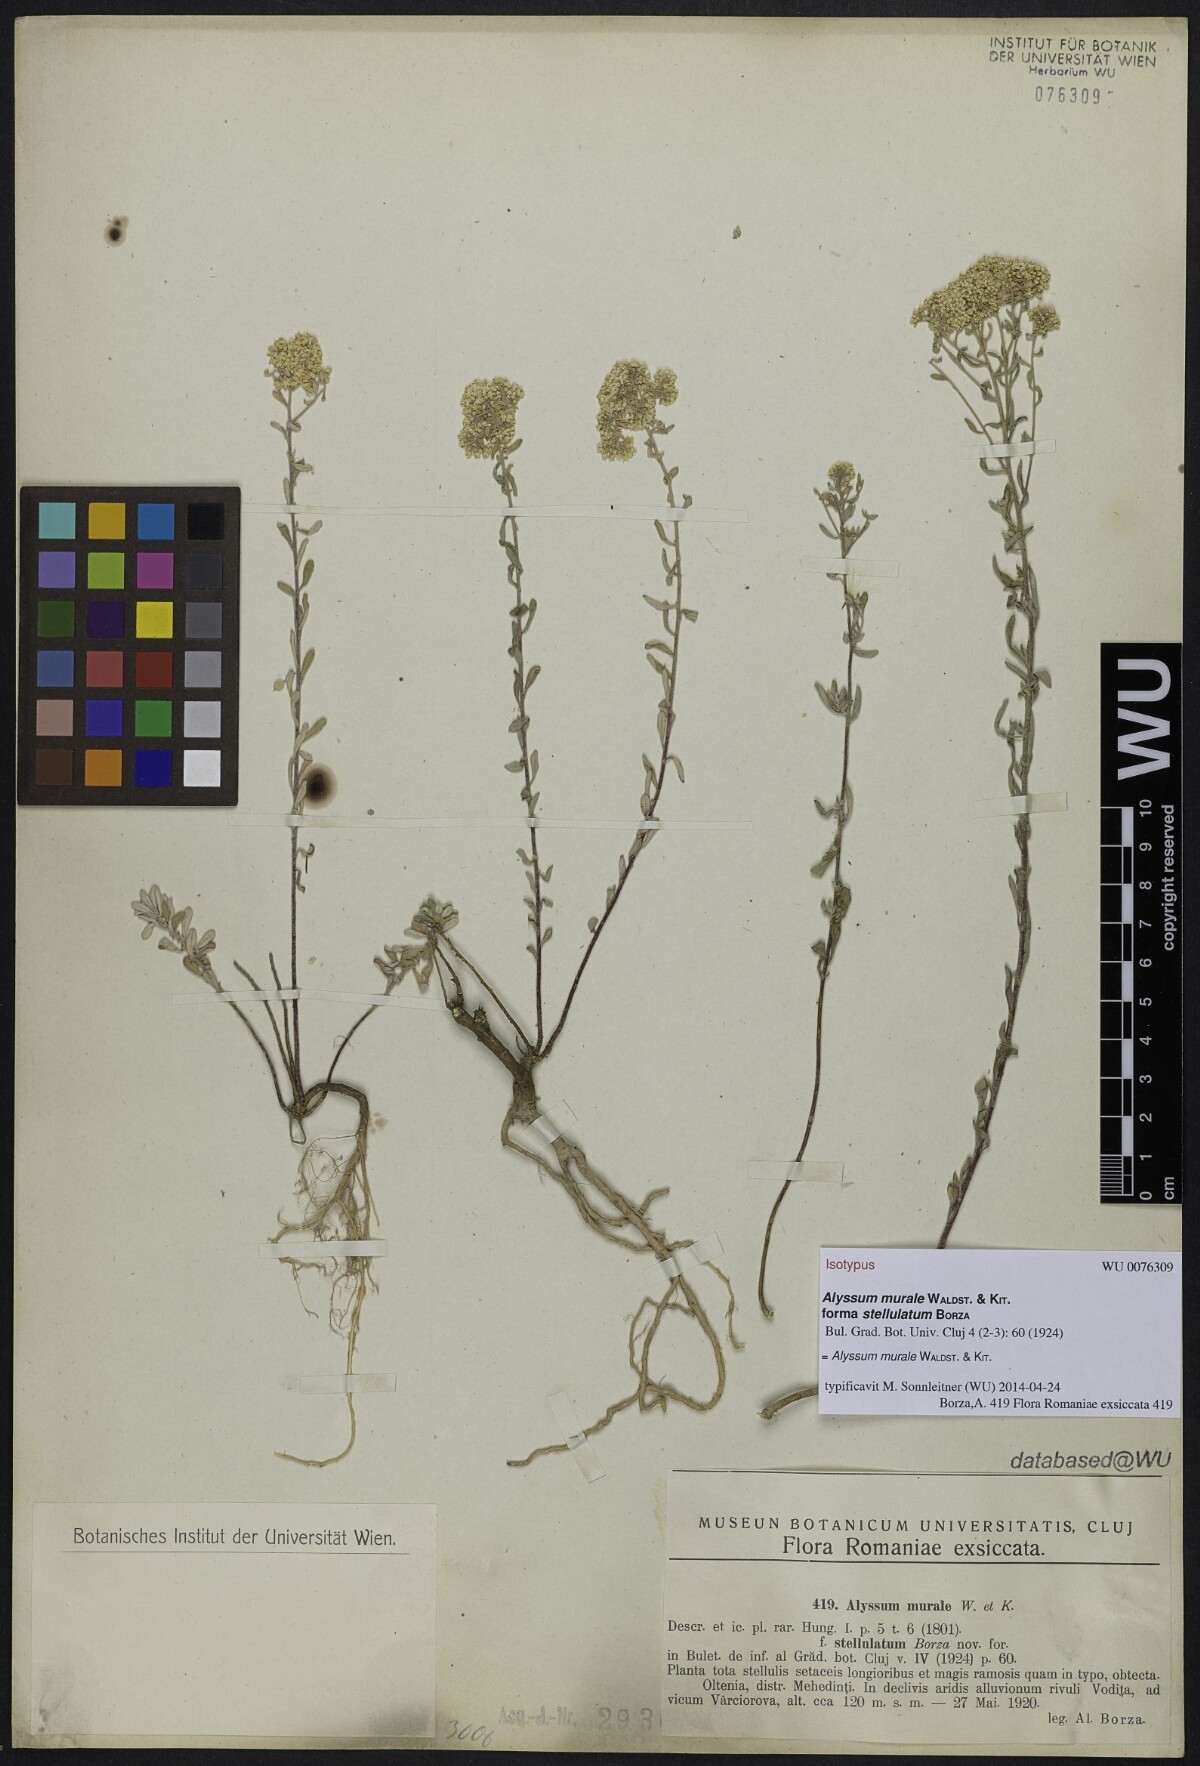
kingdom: Plantae
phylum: Tracheophyta
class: Magnoliopsida
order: Brassicales
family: Brassicaceae
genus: Odontarrhena
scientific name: Odontarrhena
